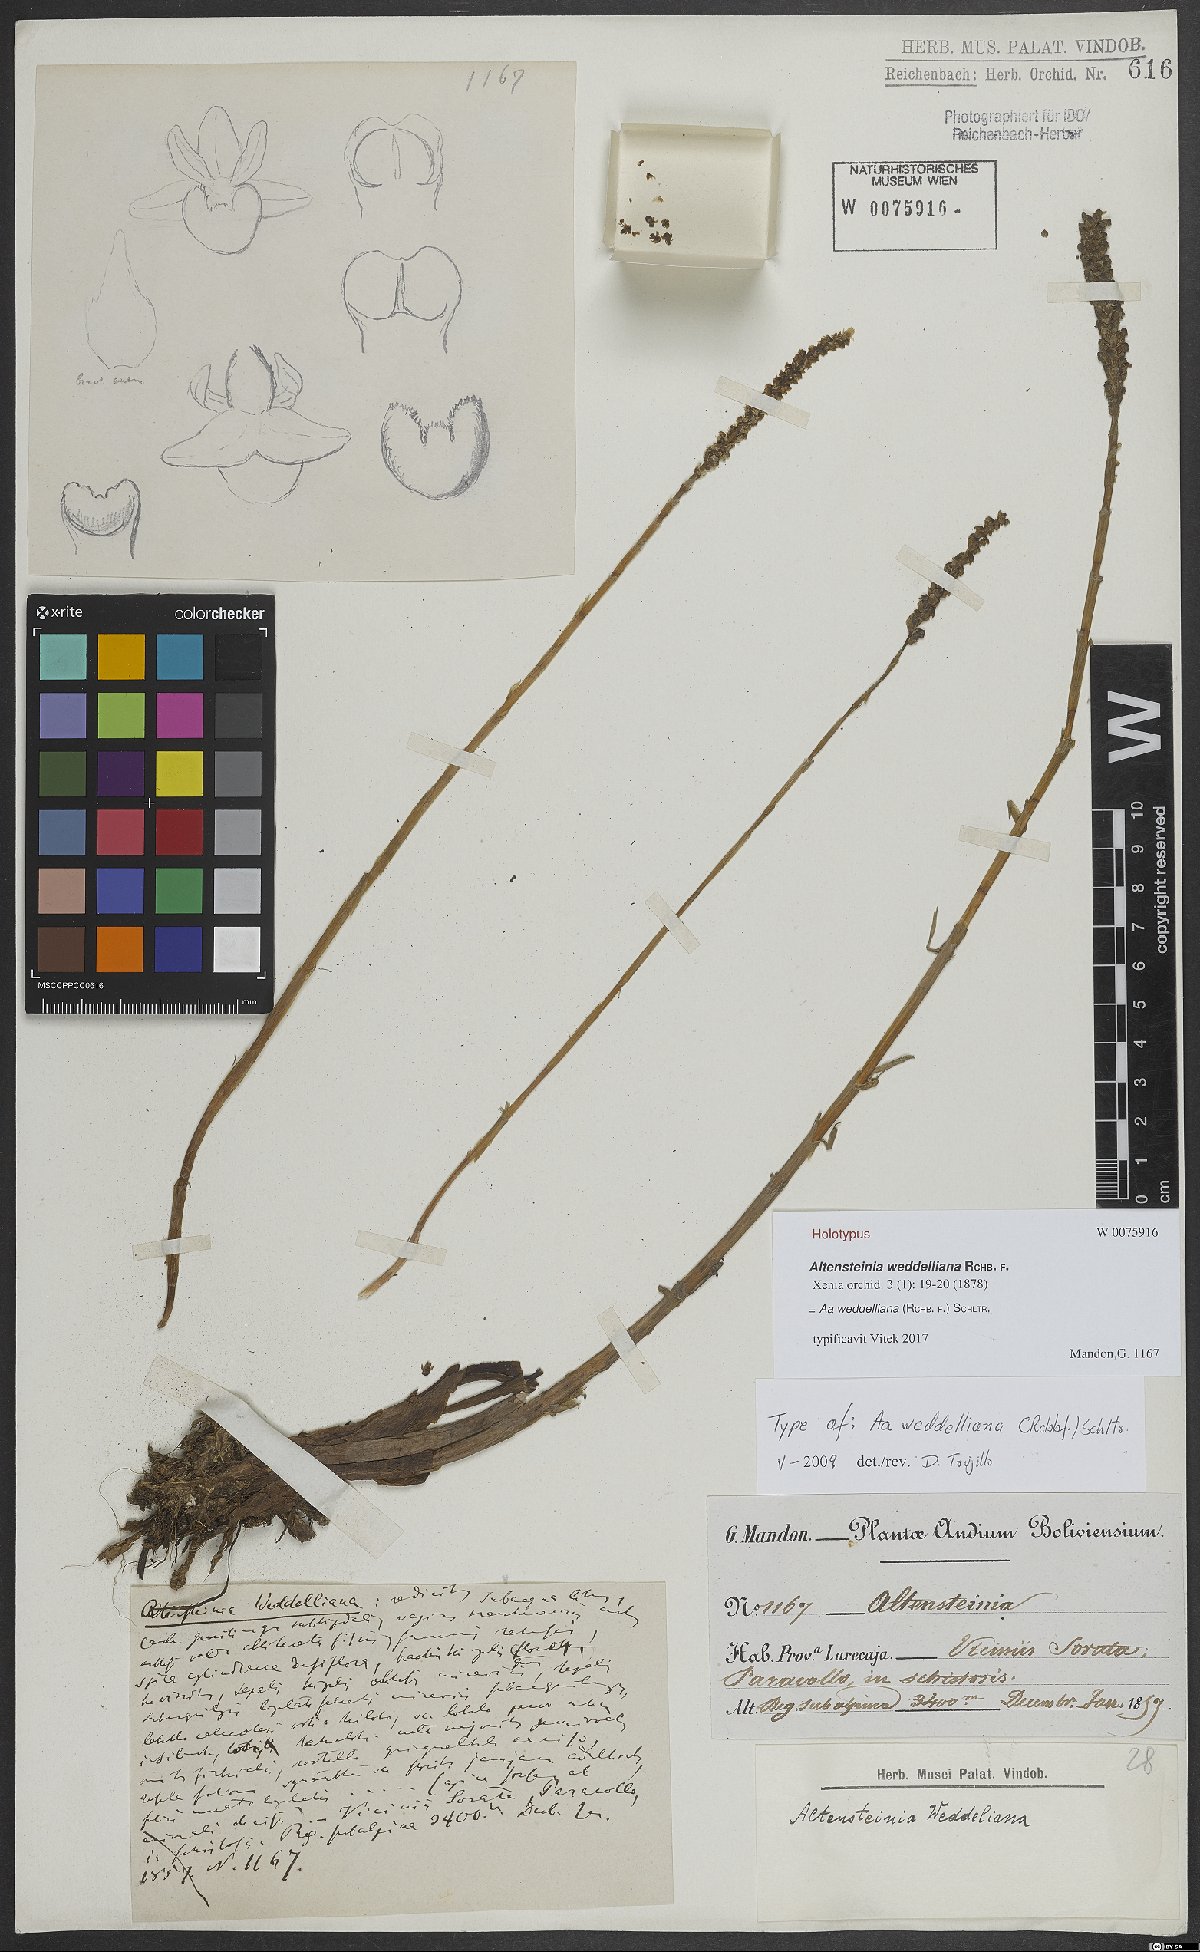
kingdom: Plantae
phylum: Tracheophyta
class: Liliopsida
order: Asparagales
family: Orchidaceae
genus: Aa
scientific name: Aa weddelliana
